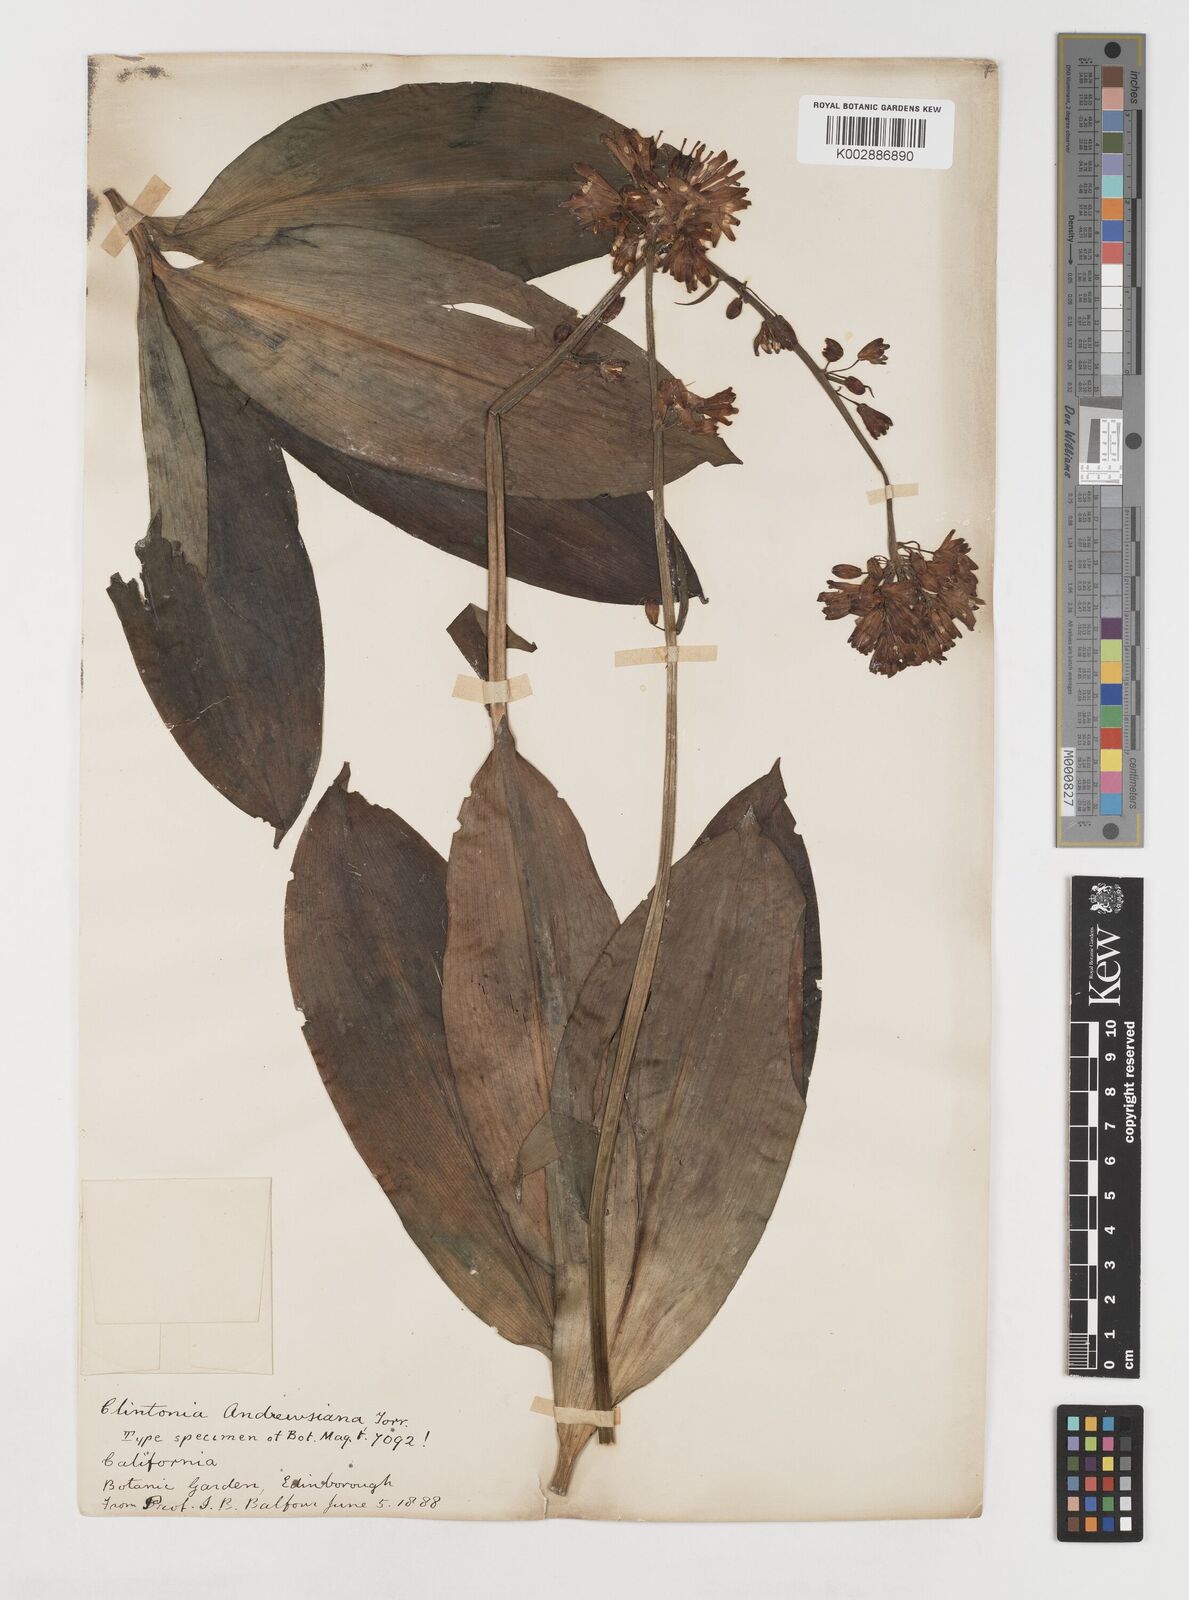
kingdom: Plantae
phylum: Tracheophyta
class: Liliopsida
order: Liliales
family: Liliaceae
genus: Clintonia
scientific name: Clintonia andrewsiana
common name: Red clintonia
